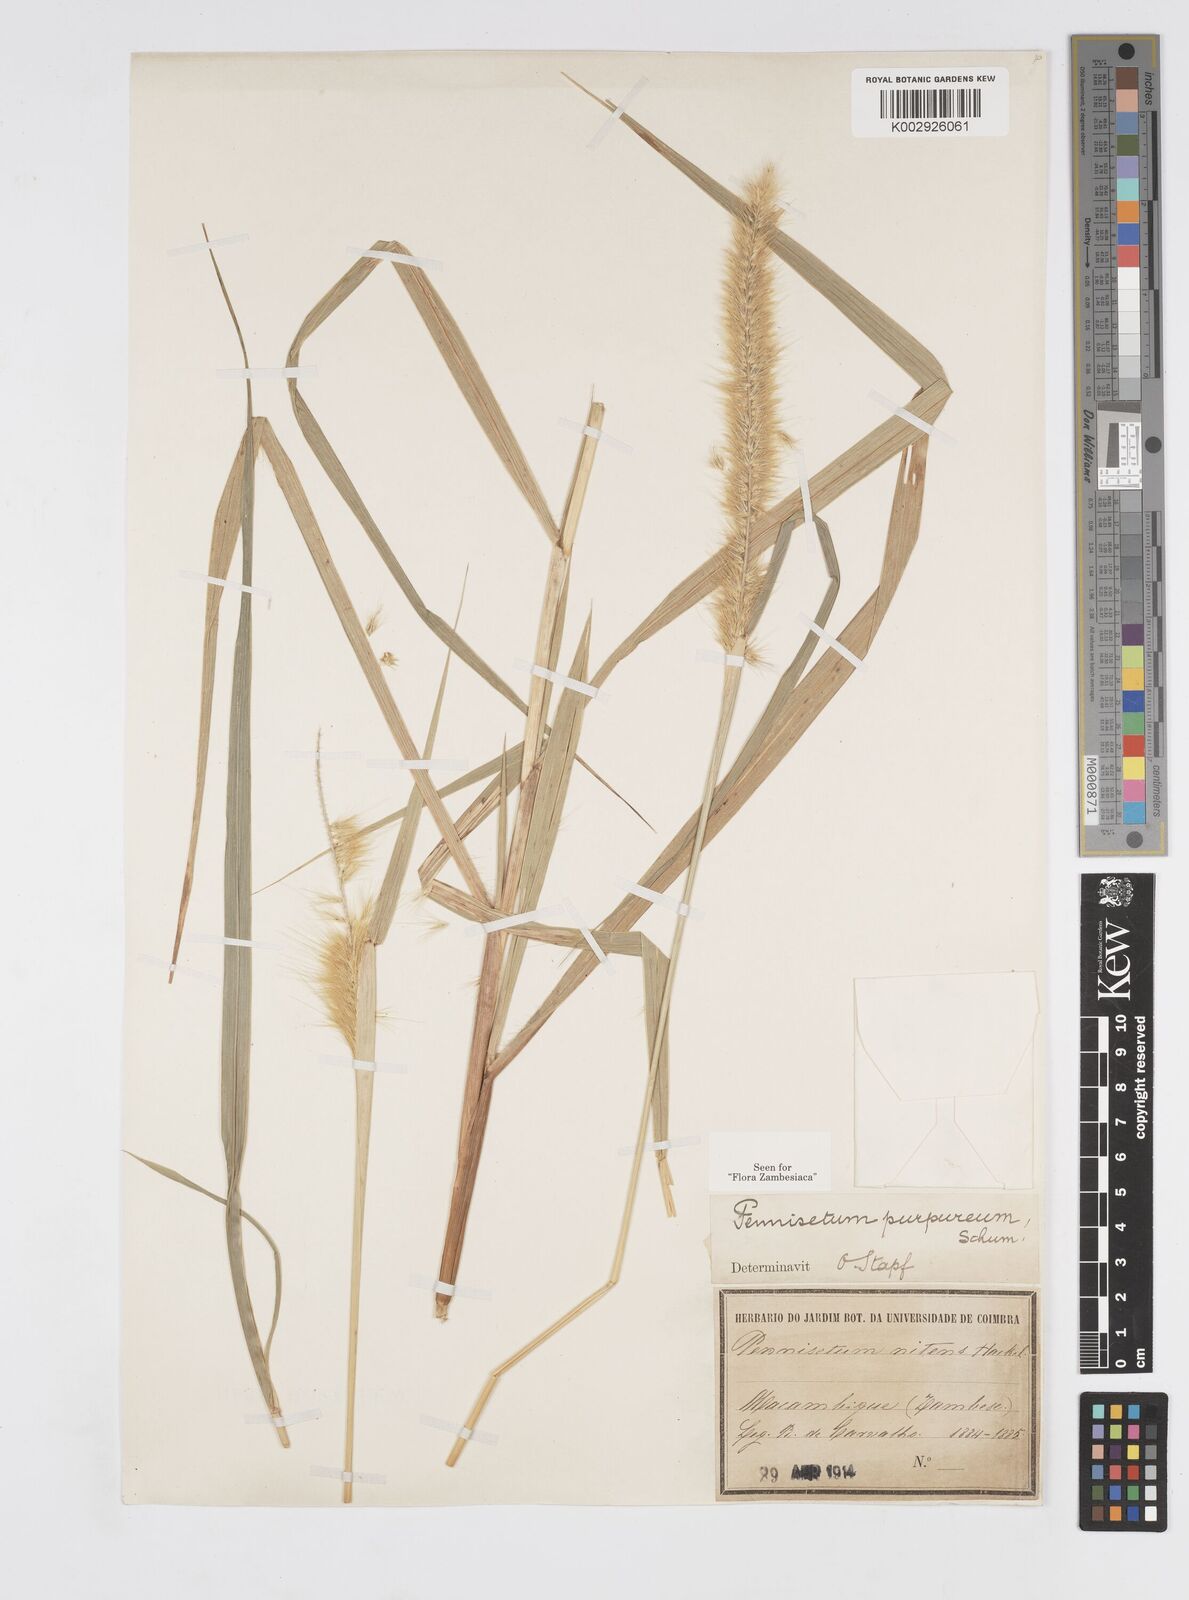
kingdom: Plantae
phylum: Tracheophyta
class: Liliopsida
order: Poales
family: Poaceae
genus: Cenchrus
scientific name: Cenchrus purpureus
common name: Elephant grass
